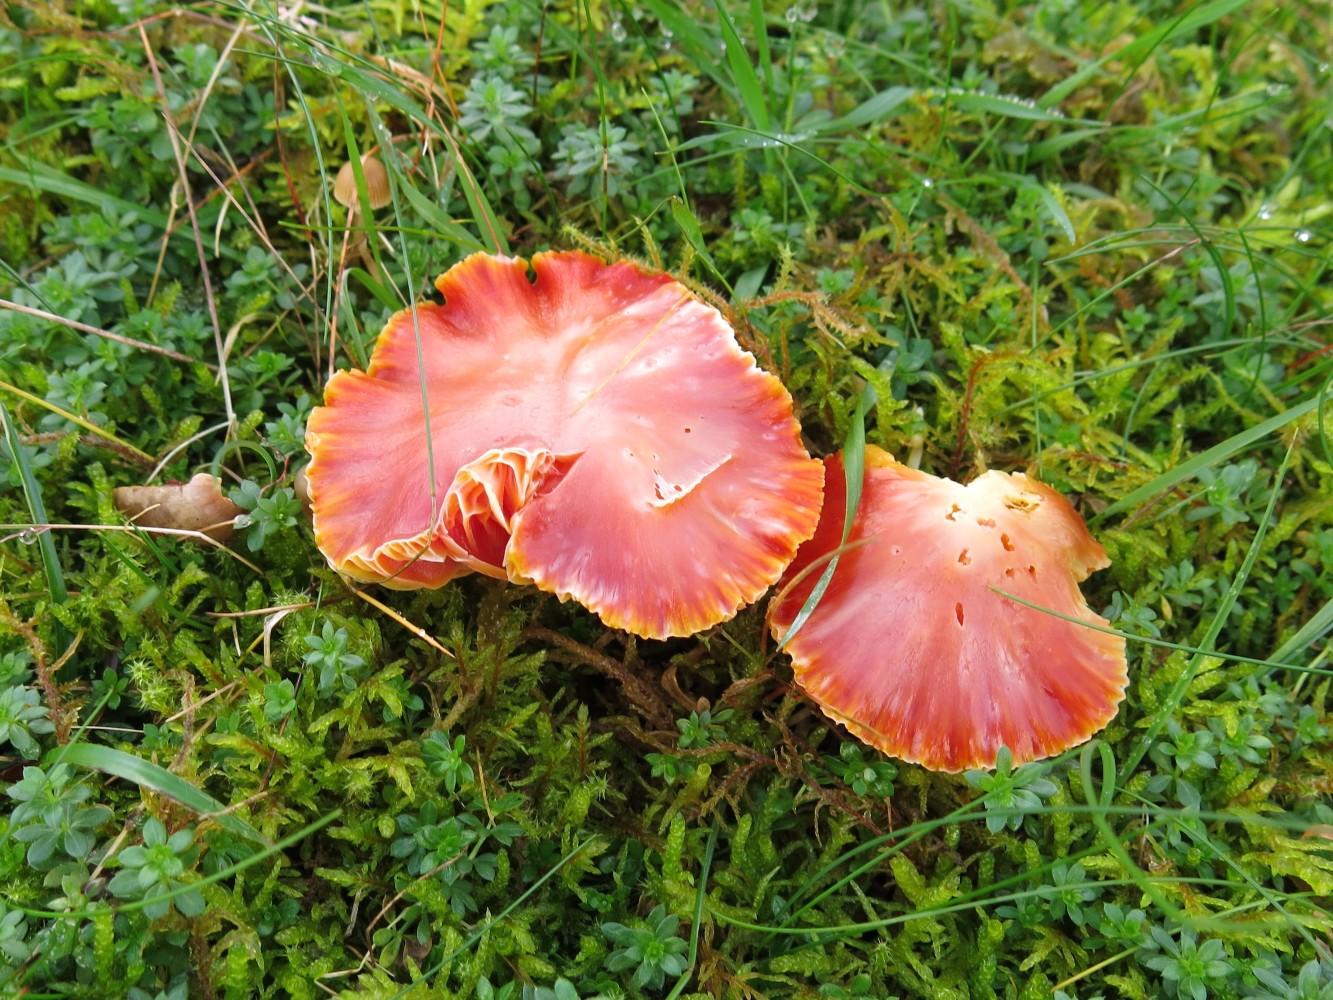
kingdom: Fungi
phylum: Basidiomycota
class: Agaricomycetes
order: Agaricales
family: Hygrophoraceae
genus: Hygrocybe
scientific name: Hygrocybe coccinea
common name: cinnober-vokshat
